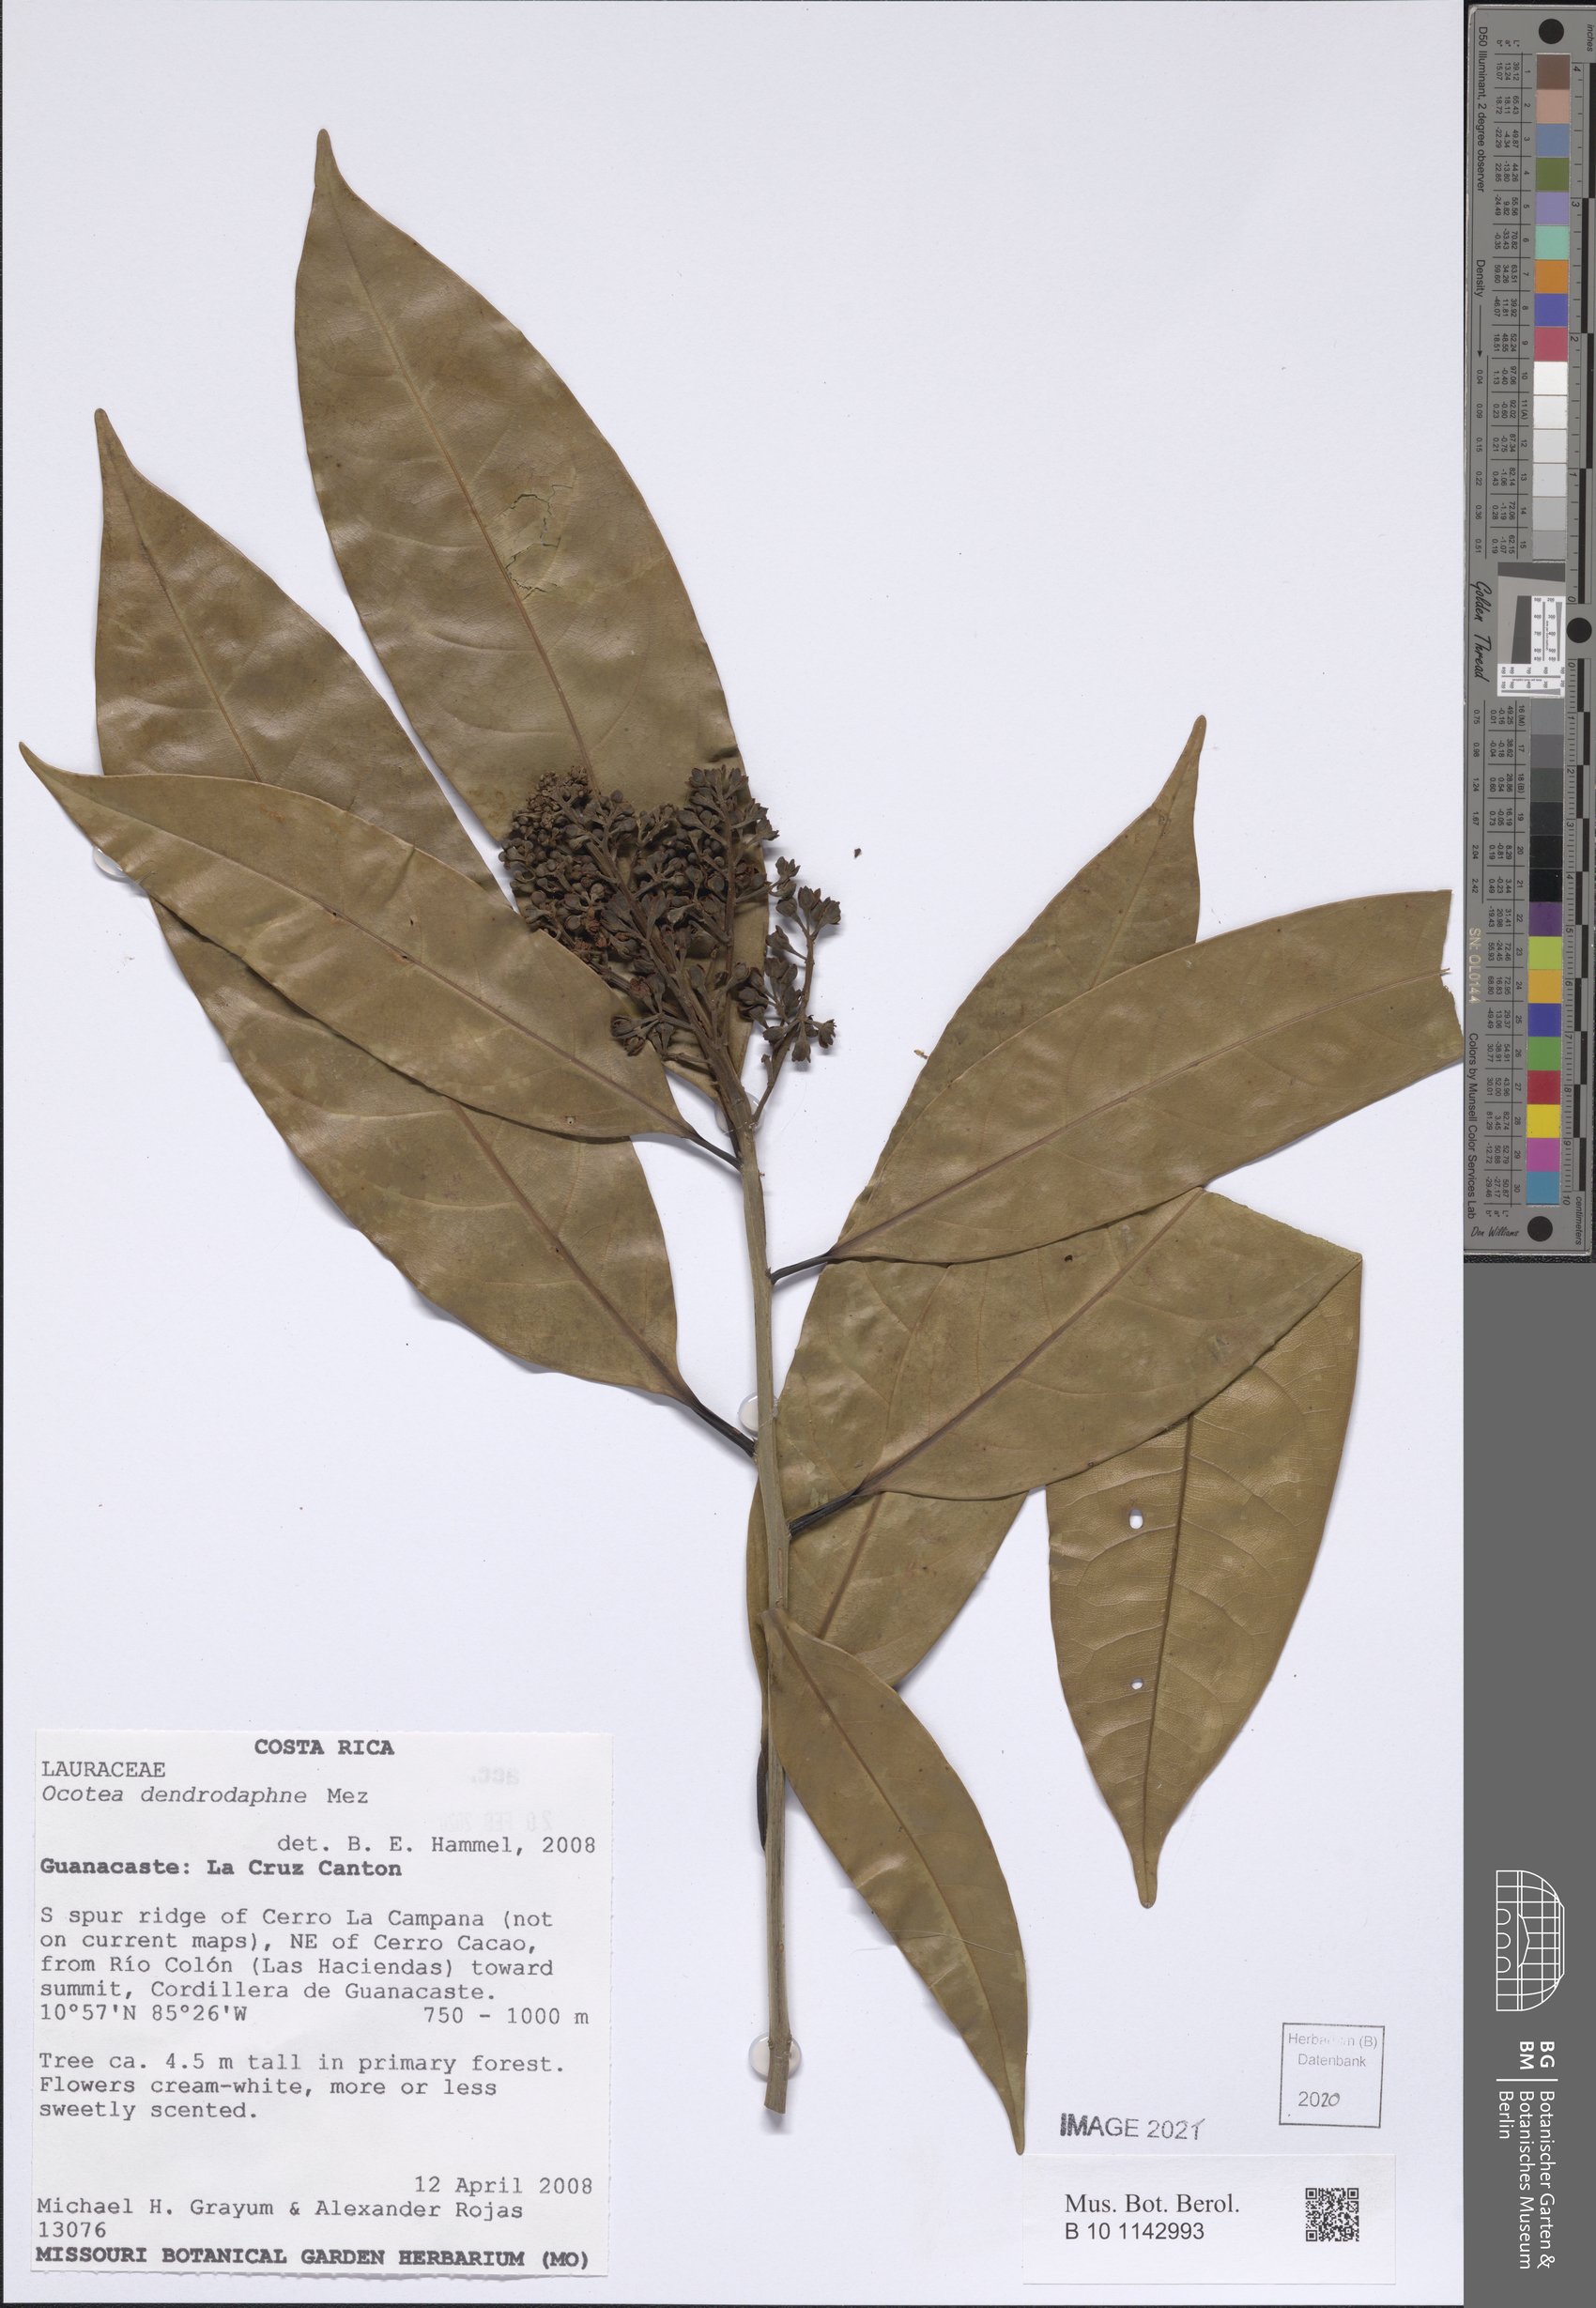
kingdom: Plantae
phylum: Tracheophyta
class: Magnoliopsida
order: Laurales
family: Lauraceae
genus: Mespilodaphne
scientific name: Mespilodaphne macrophylla
